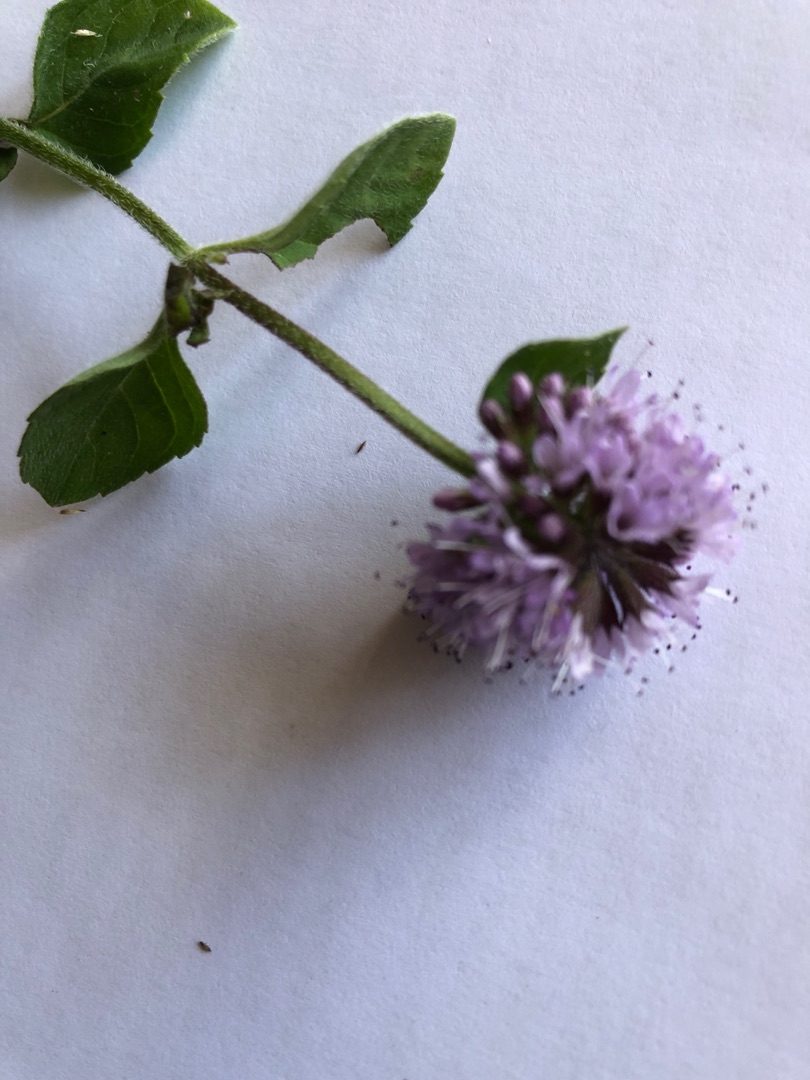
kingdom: Plantae
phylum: Tracheophyta
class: Magnoliopsida
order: Lamiales
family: Lamiaceae
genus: Mentha
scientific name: Mentha aquatica
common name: Vand-mynte
